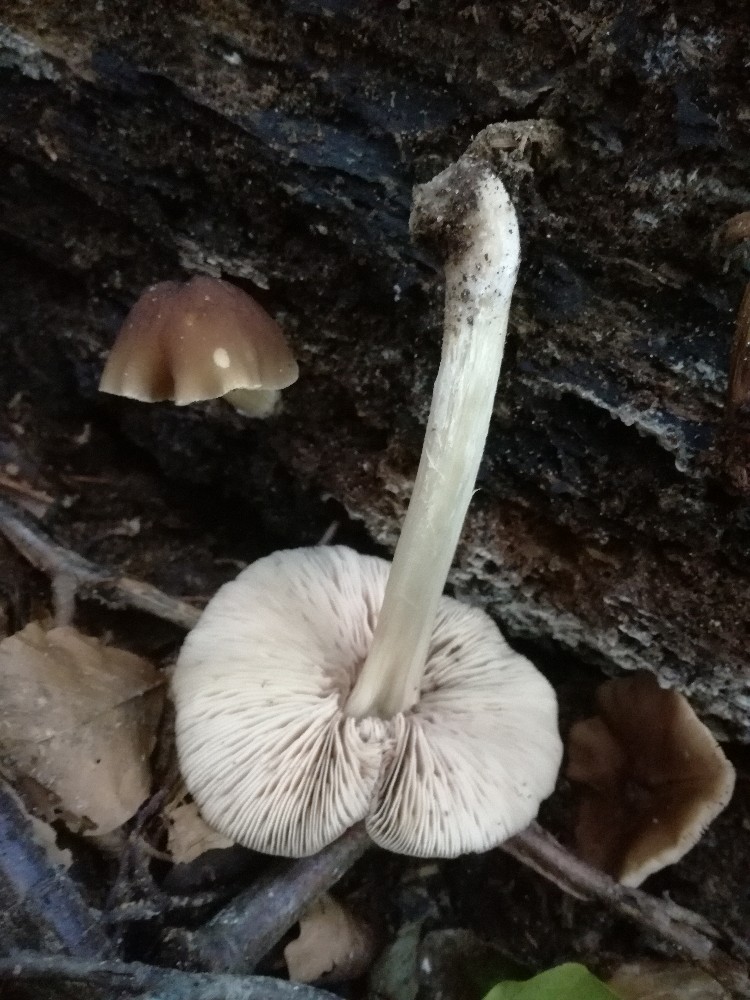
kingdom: Fungi
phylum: Basidiomycota
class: Agaricomycetes
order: Agaricales
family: Pluteaceae
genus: Pluteus
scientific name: Pluteus phlebophorus
